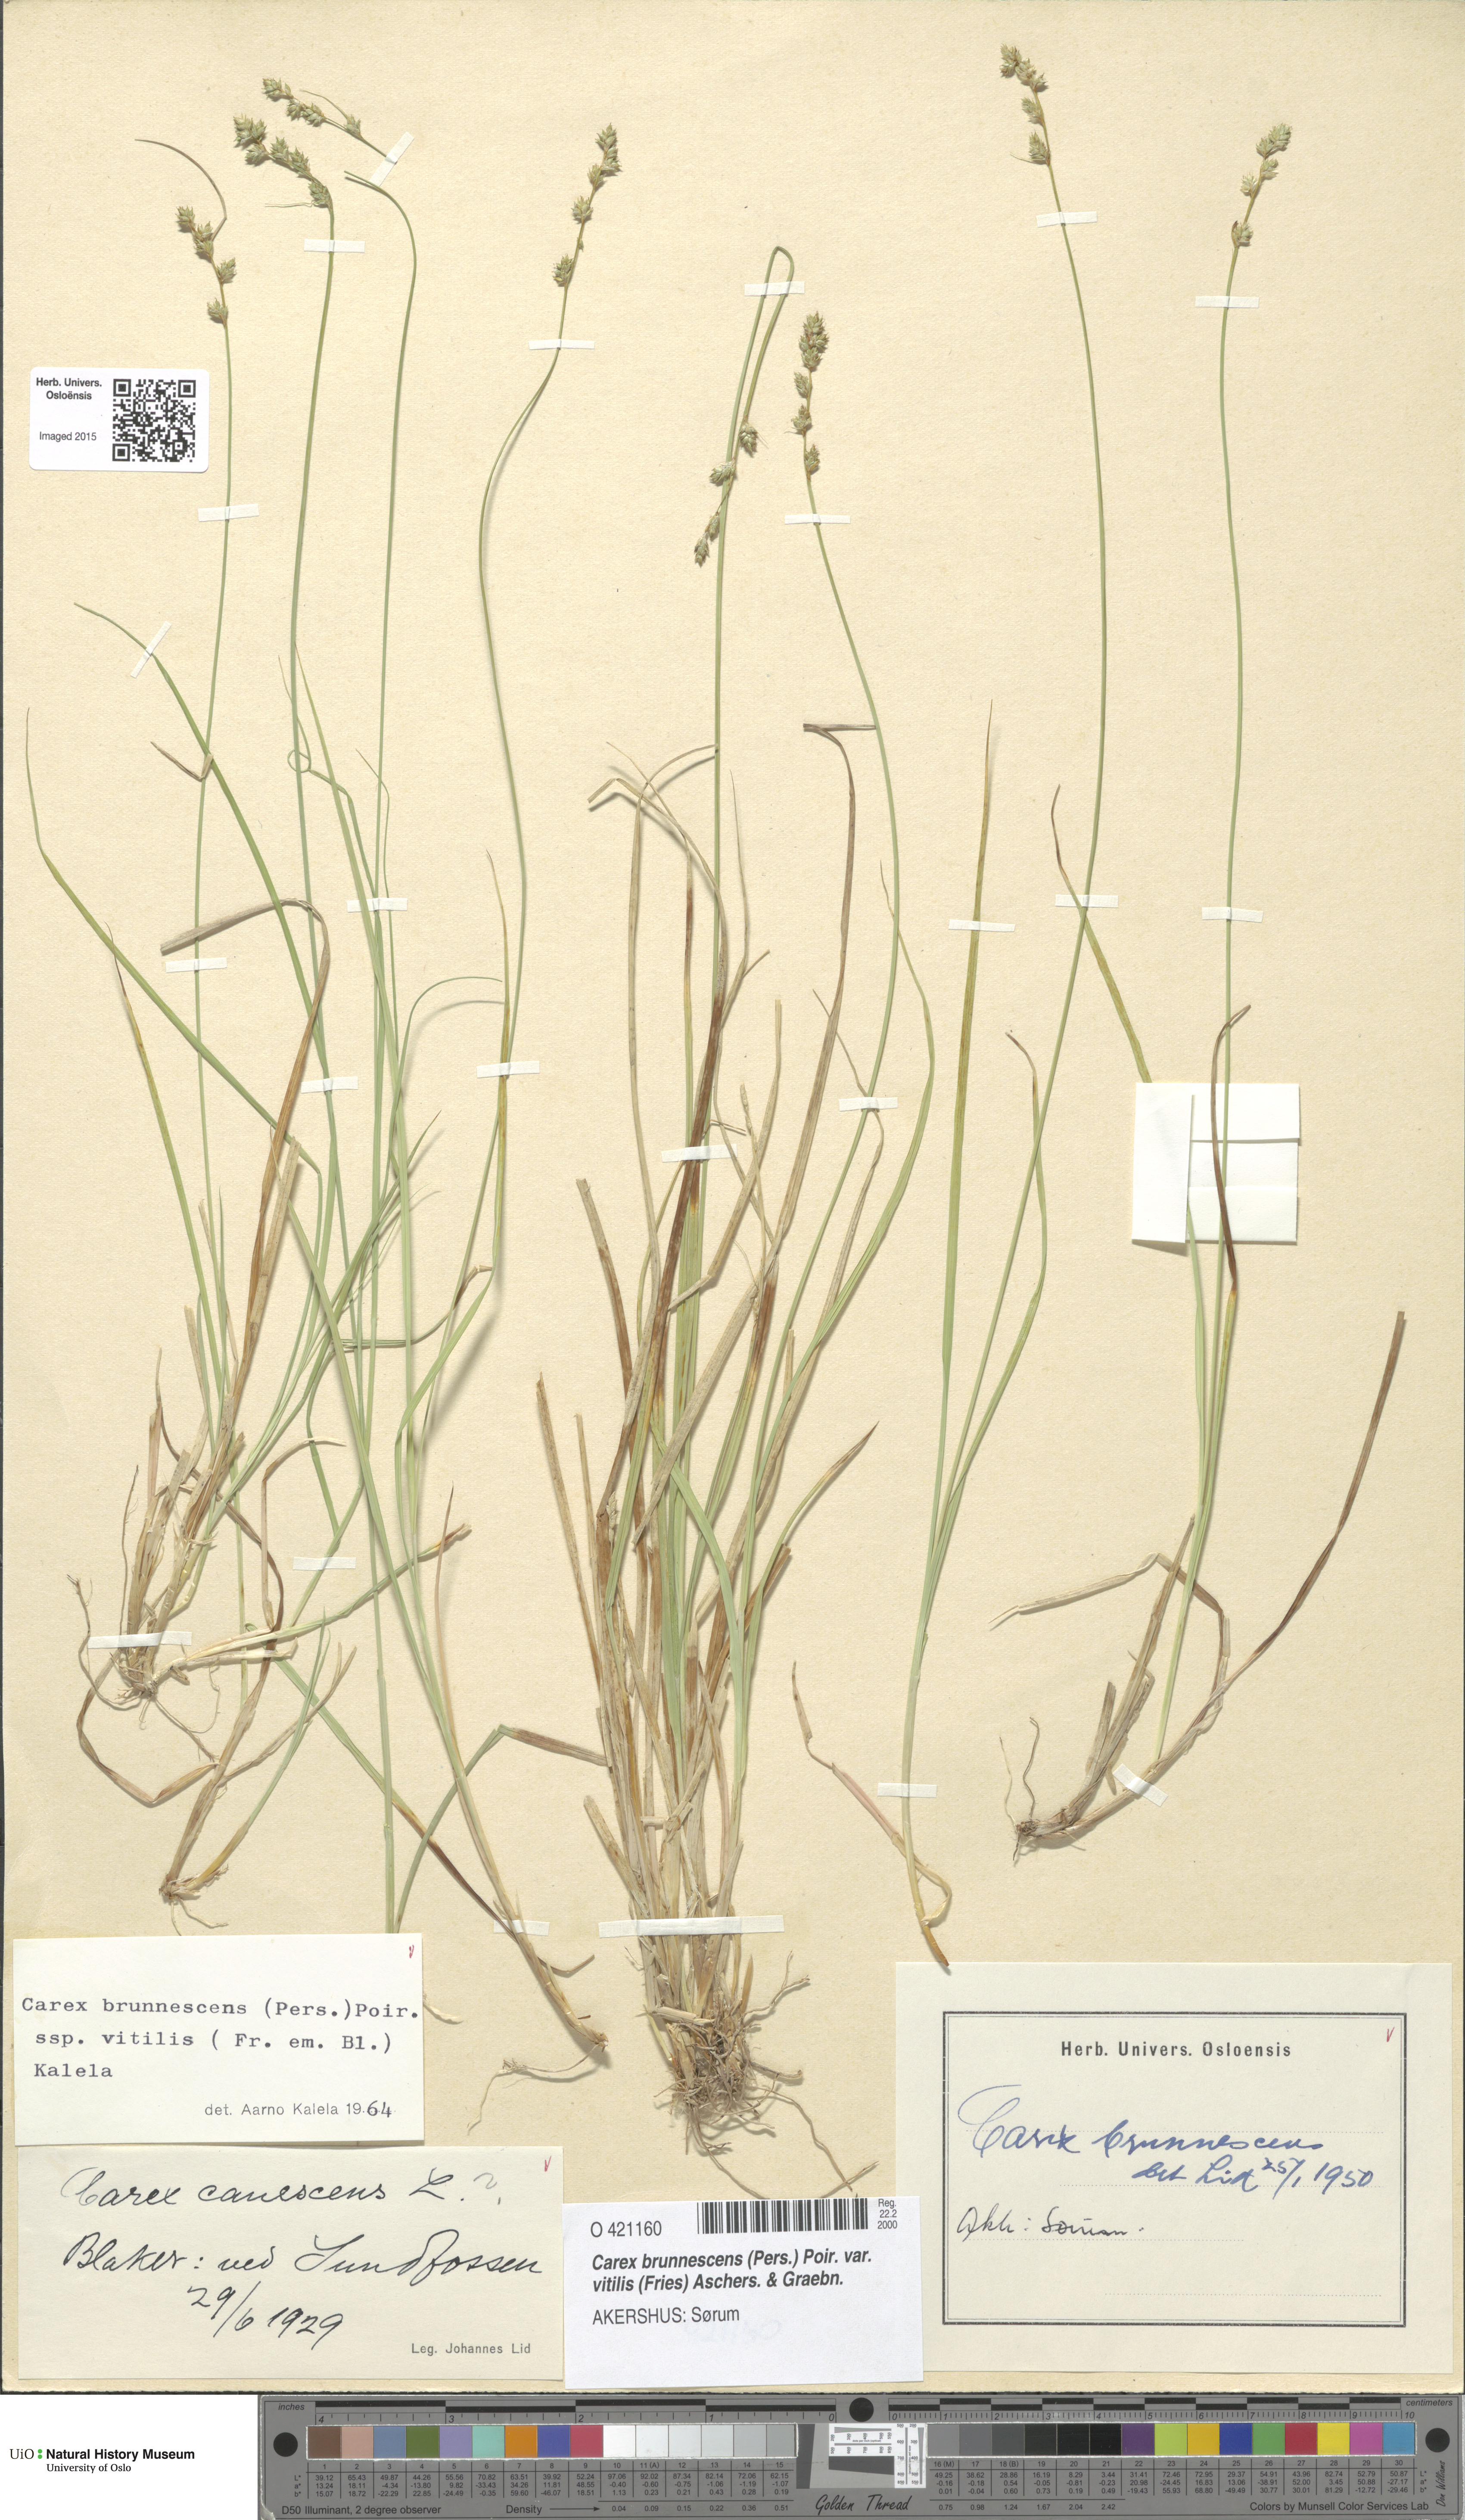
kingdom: Plantae
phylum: Tracheophyta
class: Liliopsida
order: Poales
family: Cyperaceae
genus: Carex
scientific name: Carex brunnescens
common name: Brown sedge
